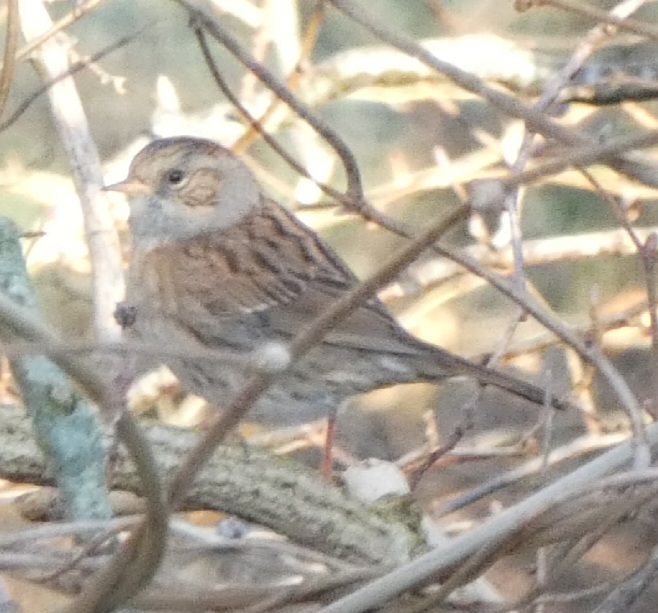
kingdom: Animalia
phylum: Chordata
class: Aves
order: Passeriformes
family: Prunellidae
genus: Prunella
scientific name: Prunella modularis
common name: Jernspurv
